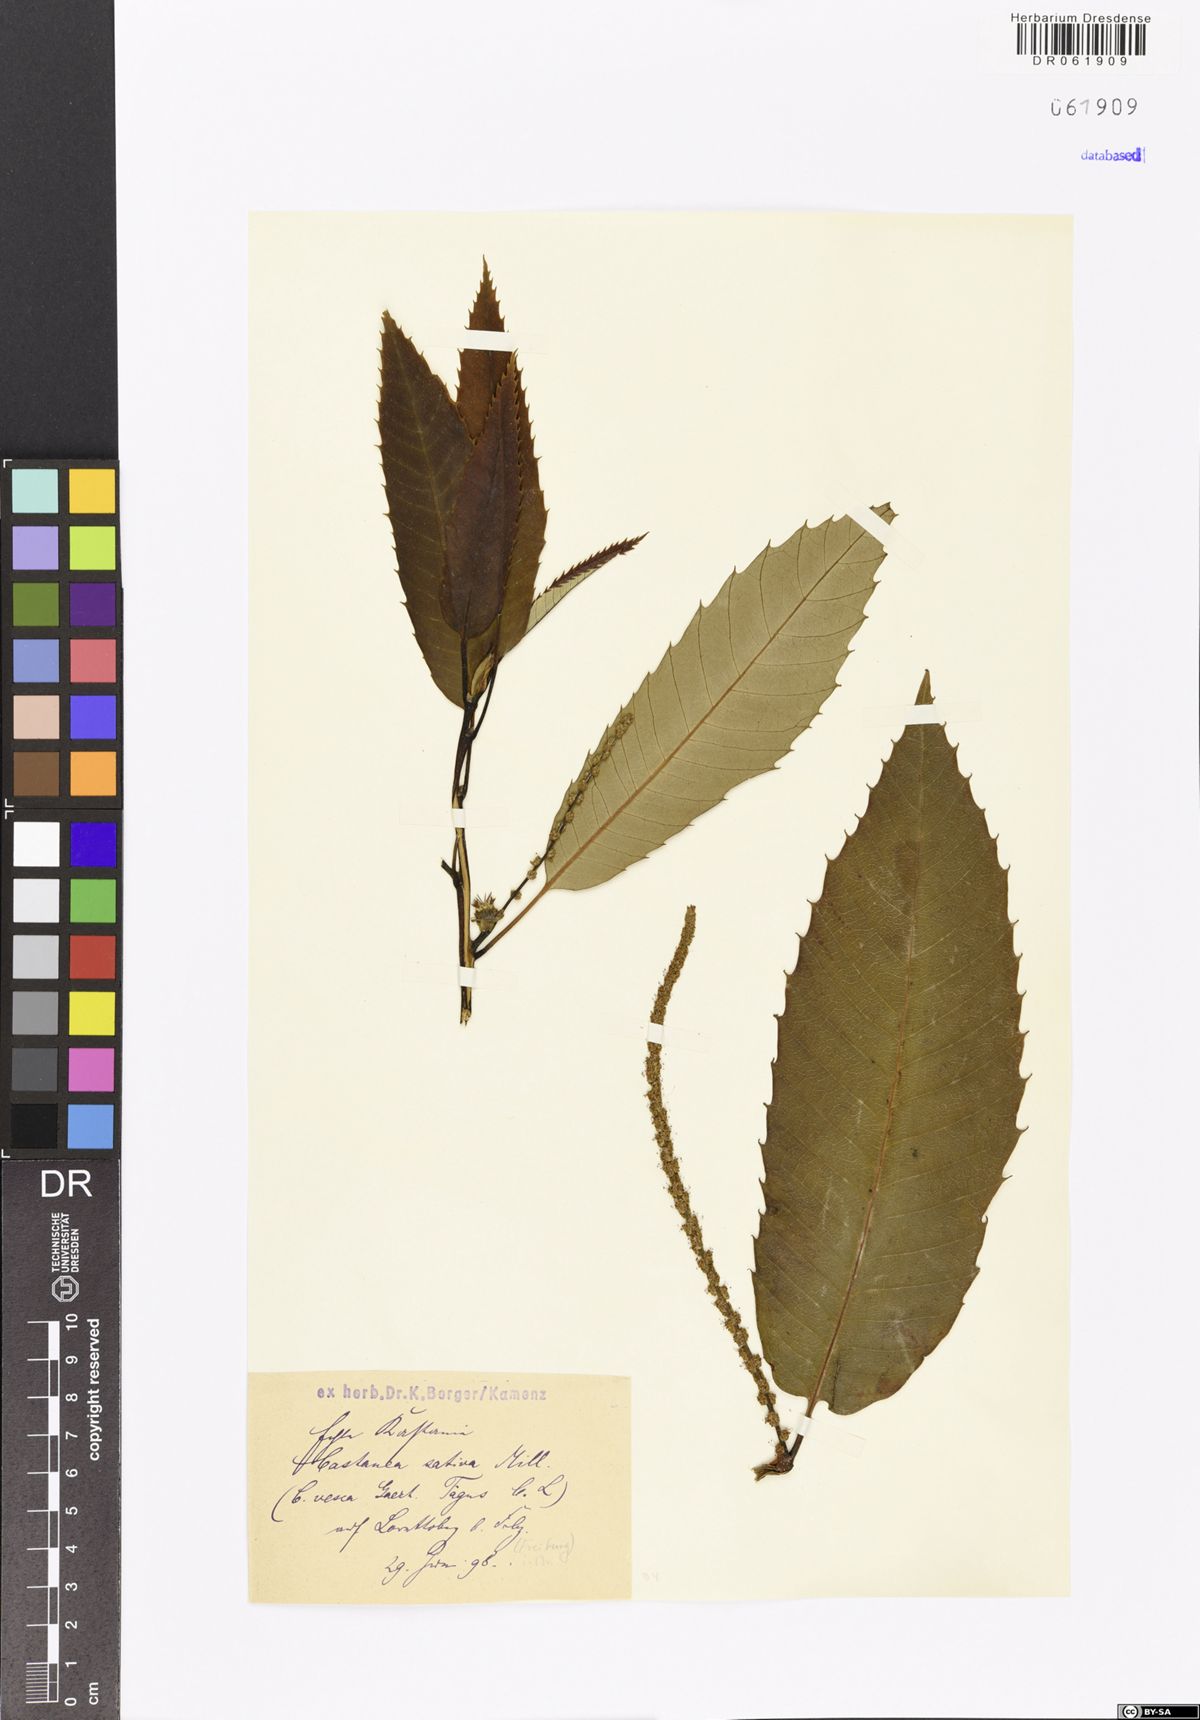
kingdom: Plantae
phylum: Tracheophyta
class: Magnoliopsida
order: Fagales
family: Fagaceae
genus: Castanea
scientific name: Castanea sativa
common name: Sweet chestnut
